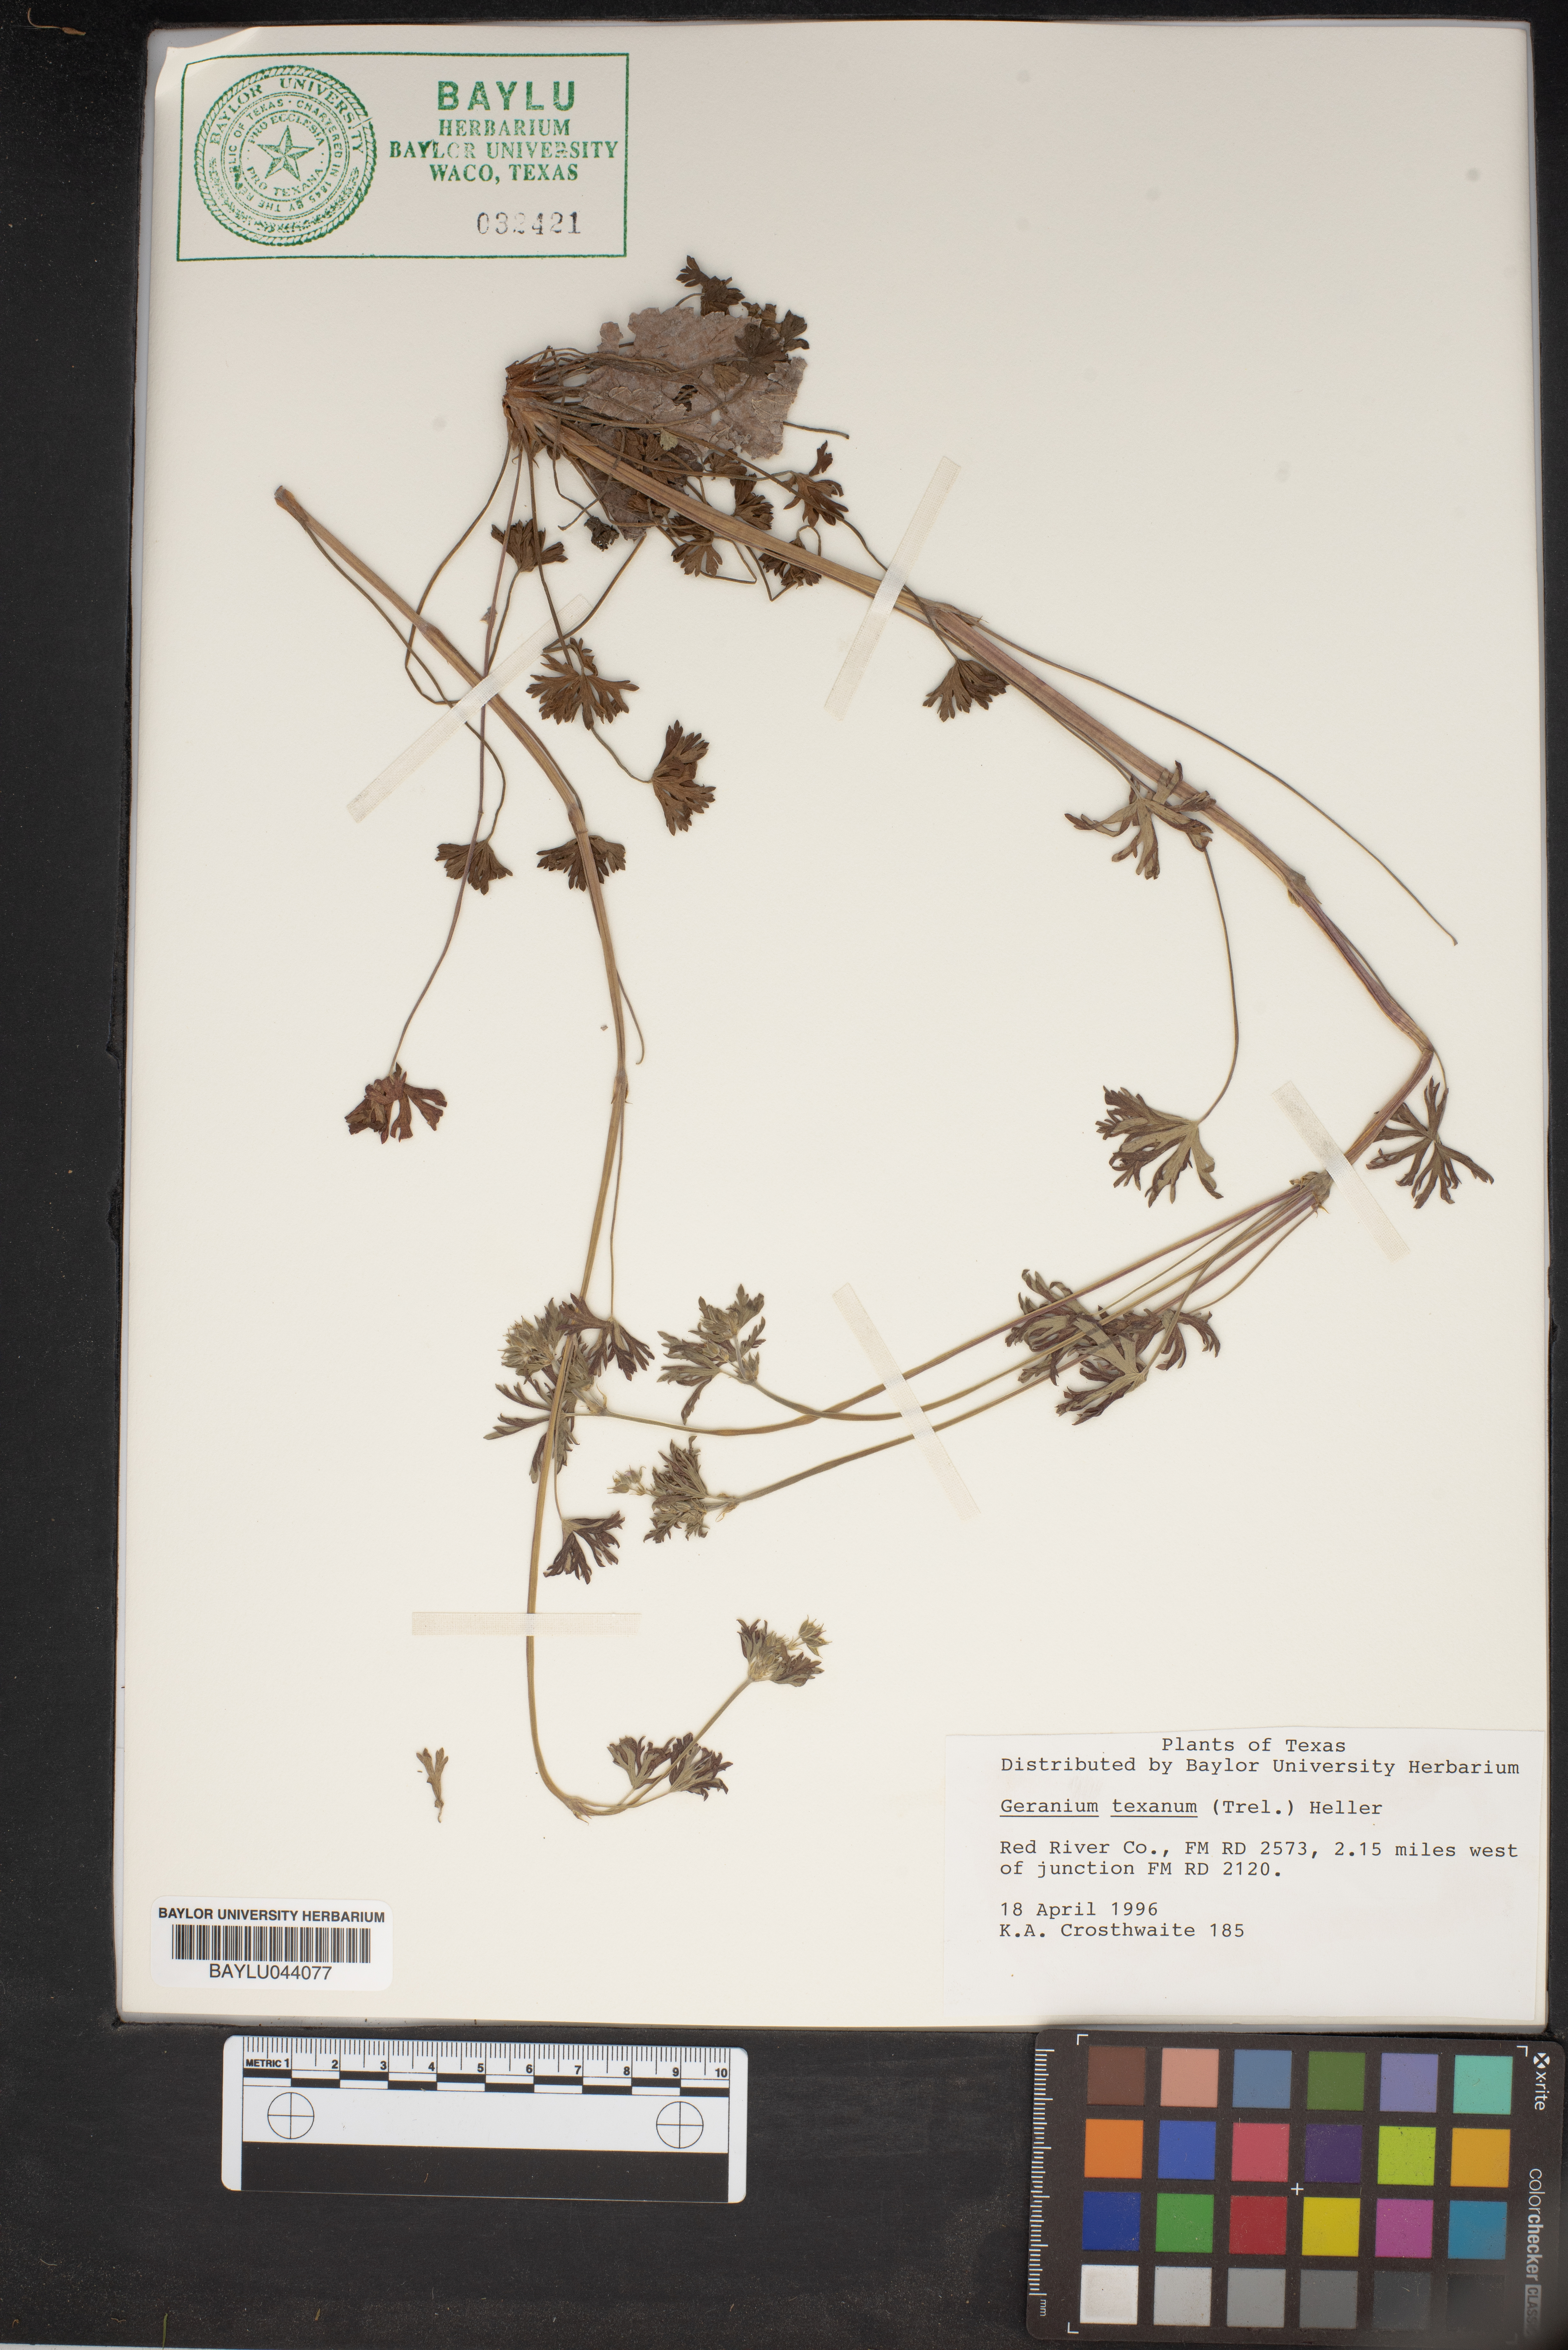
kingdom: Plantae
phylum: Tracheophyta
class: Magnoliopsida
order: Geraniales
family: Geraniaceae
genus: Geranium
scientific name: Geranium texanum
